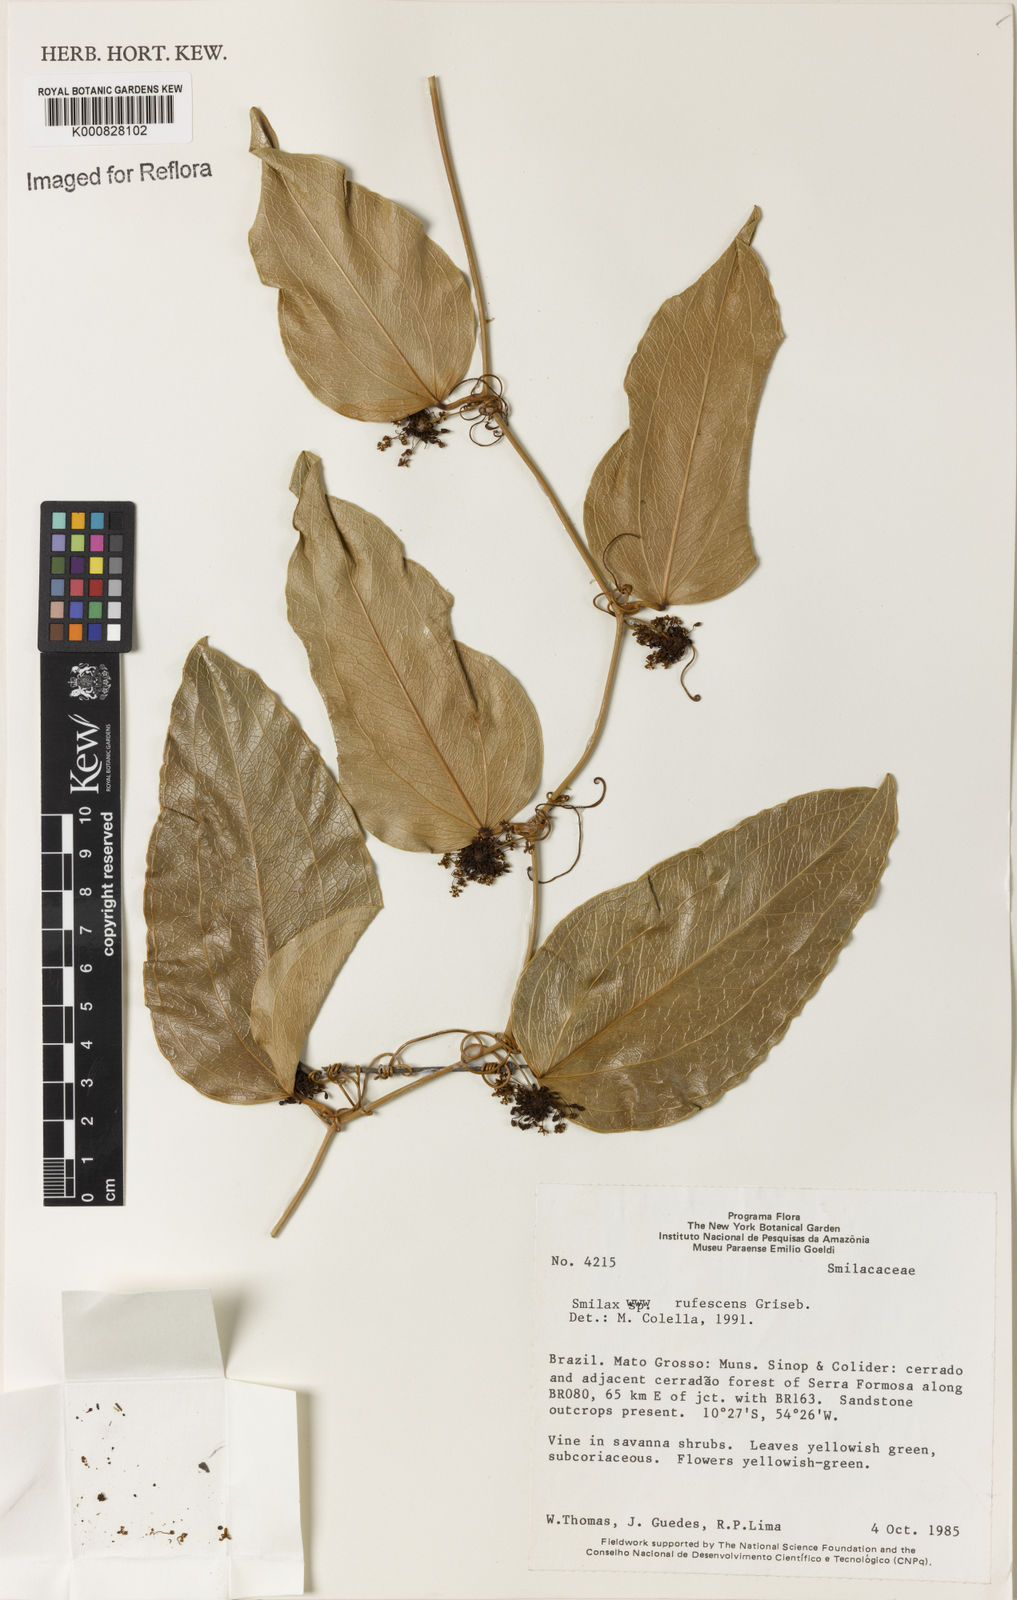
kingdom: Plantae
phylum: Tracheophyta
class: Liliopsida
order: Liliales
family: Smilacaceae
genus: Smilax
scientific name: Smilax rufescens
